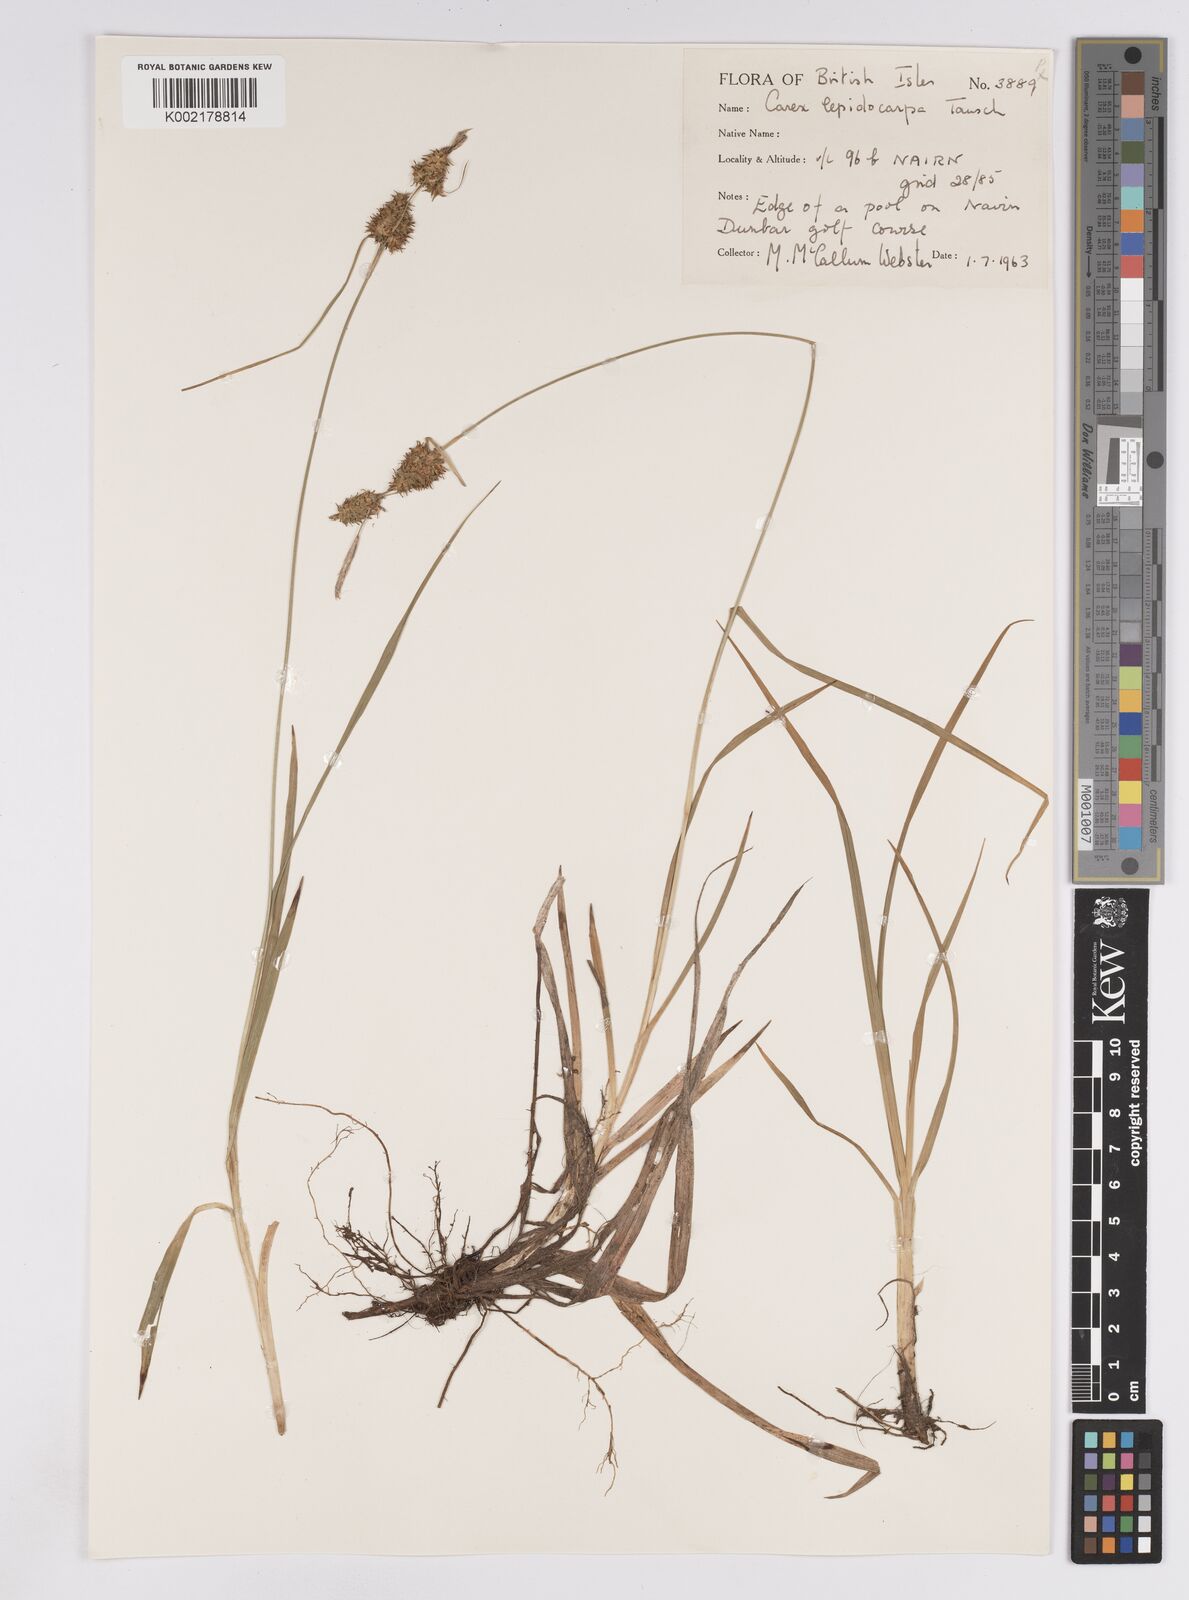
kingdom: Plantae
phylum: Tracheophyta
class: Liliopsida
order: Poales
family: Cyperaceae
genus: Carex
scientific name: Carex lepidocarpa
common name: Long-stalked yellow-sedge
